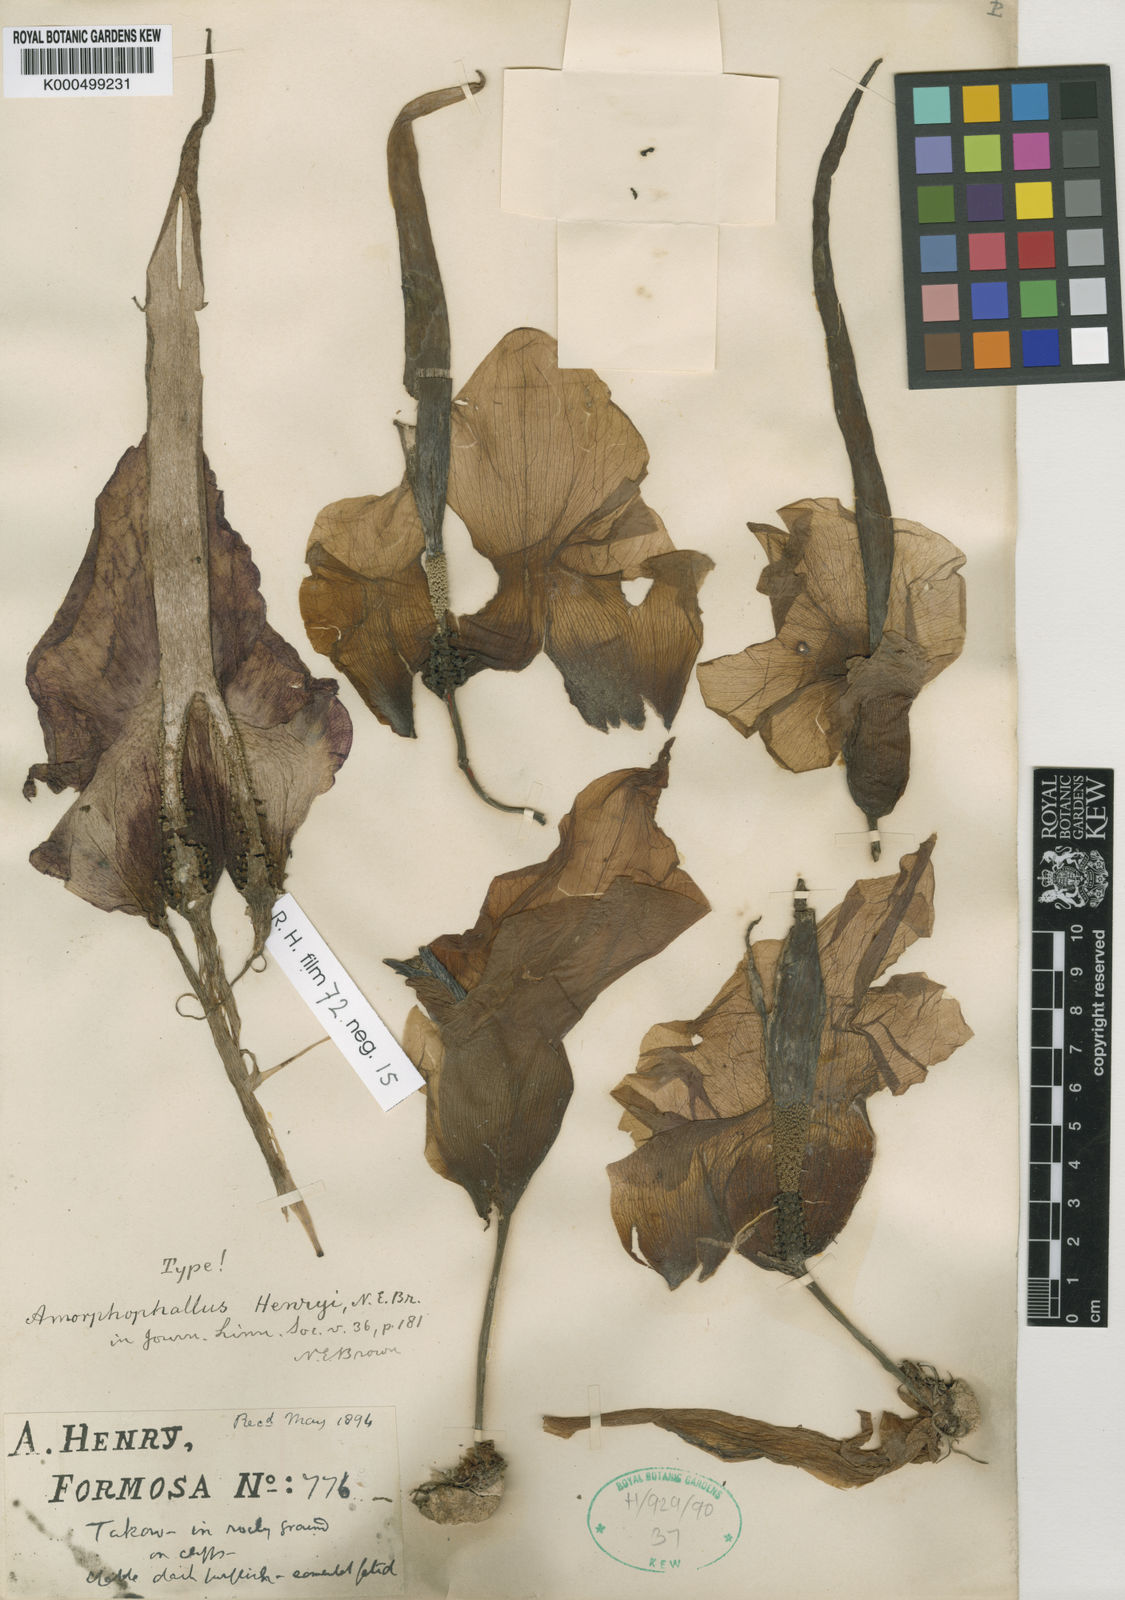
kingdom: Plantae
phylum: Tracheophyta
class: Liliopsida
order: Alismatales
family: Araceae
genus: Amorphophallus
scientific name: Amorphophallus henryi
